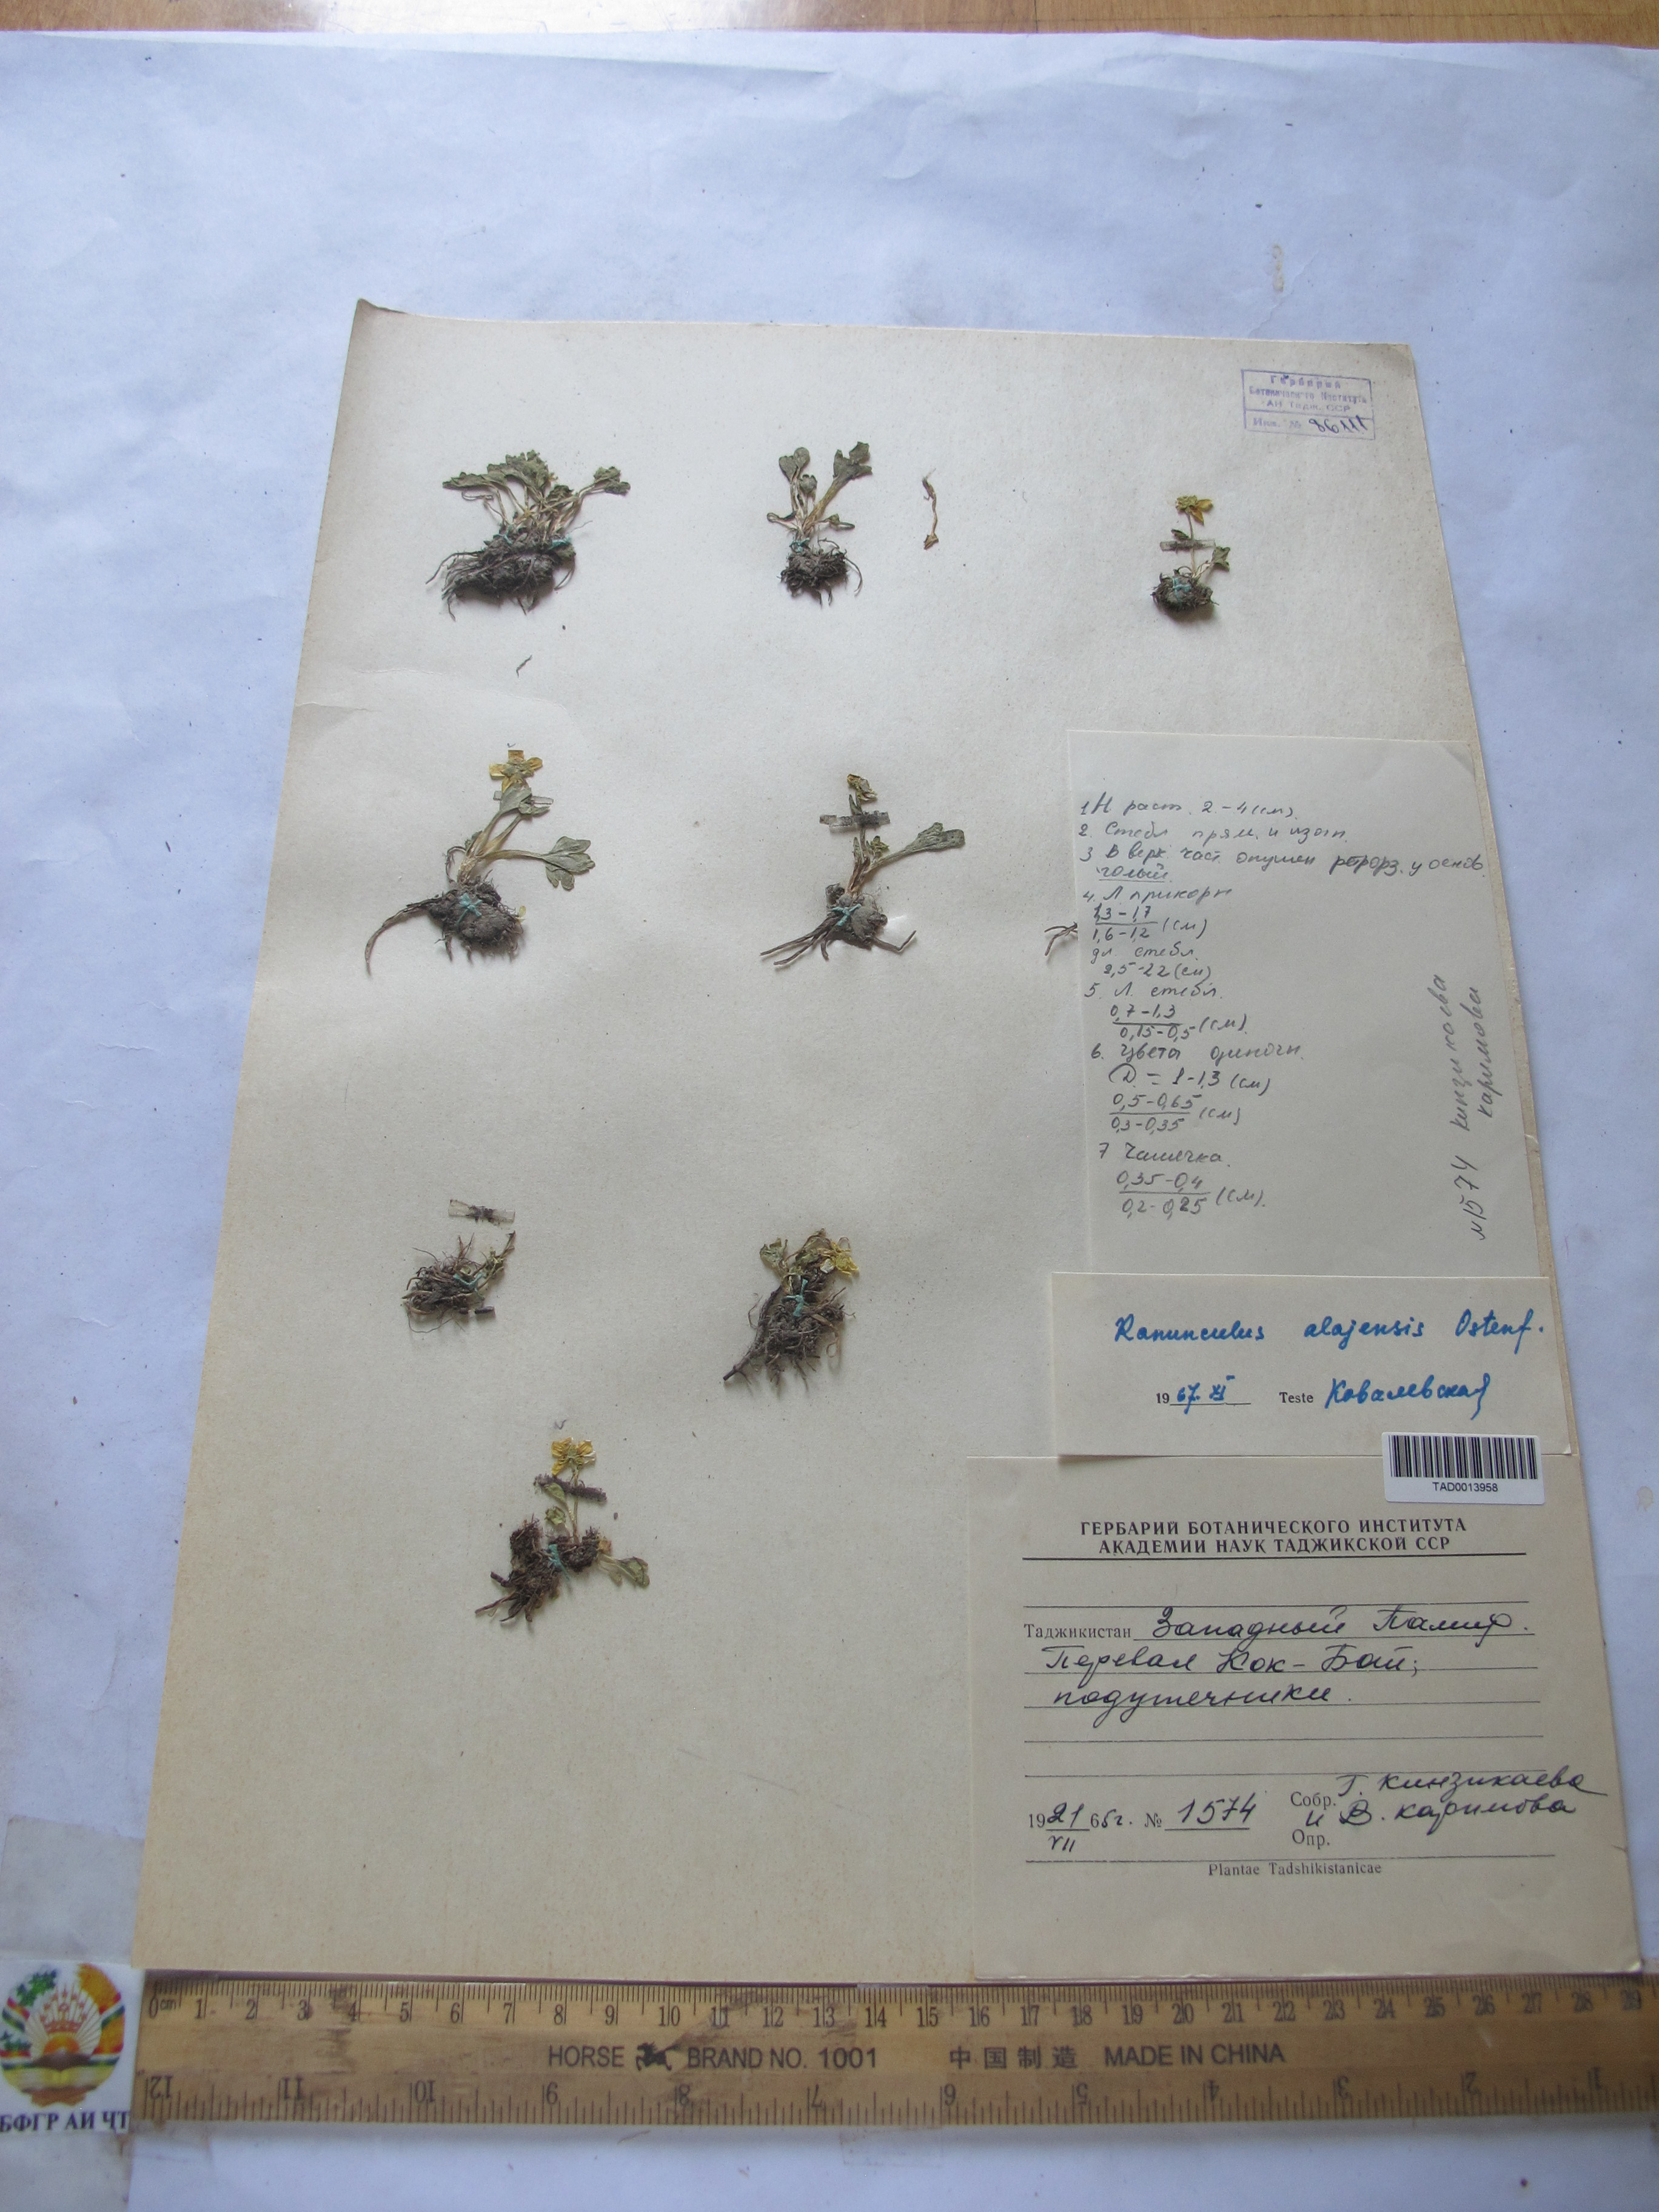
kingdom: Plantae
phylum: Tracheophyta
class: Magnoliopsida
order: Ranunculales
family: Ranunculaceae
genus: Ranunculus
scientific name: Ranunculus alaiensis
